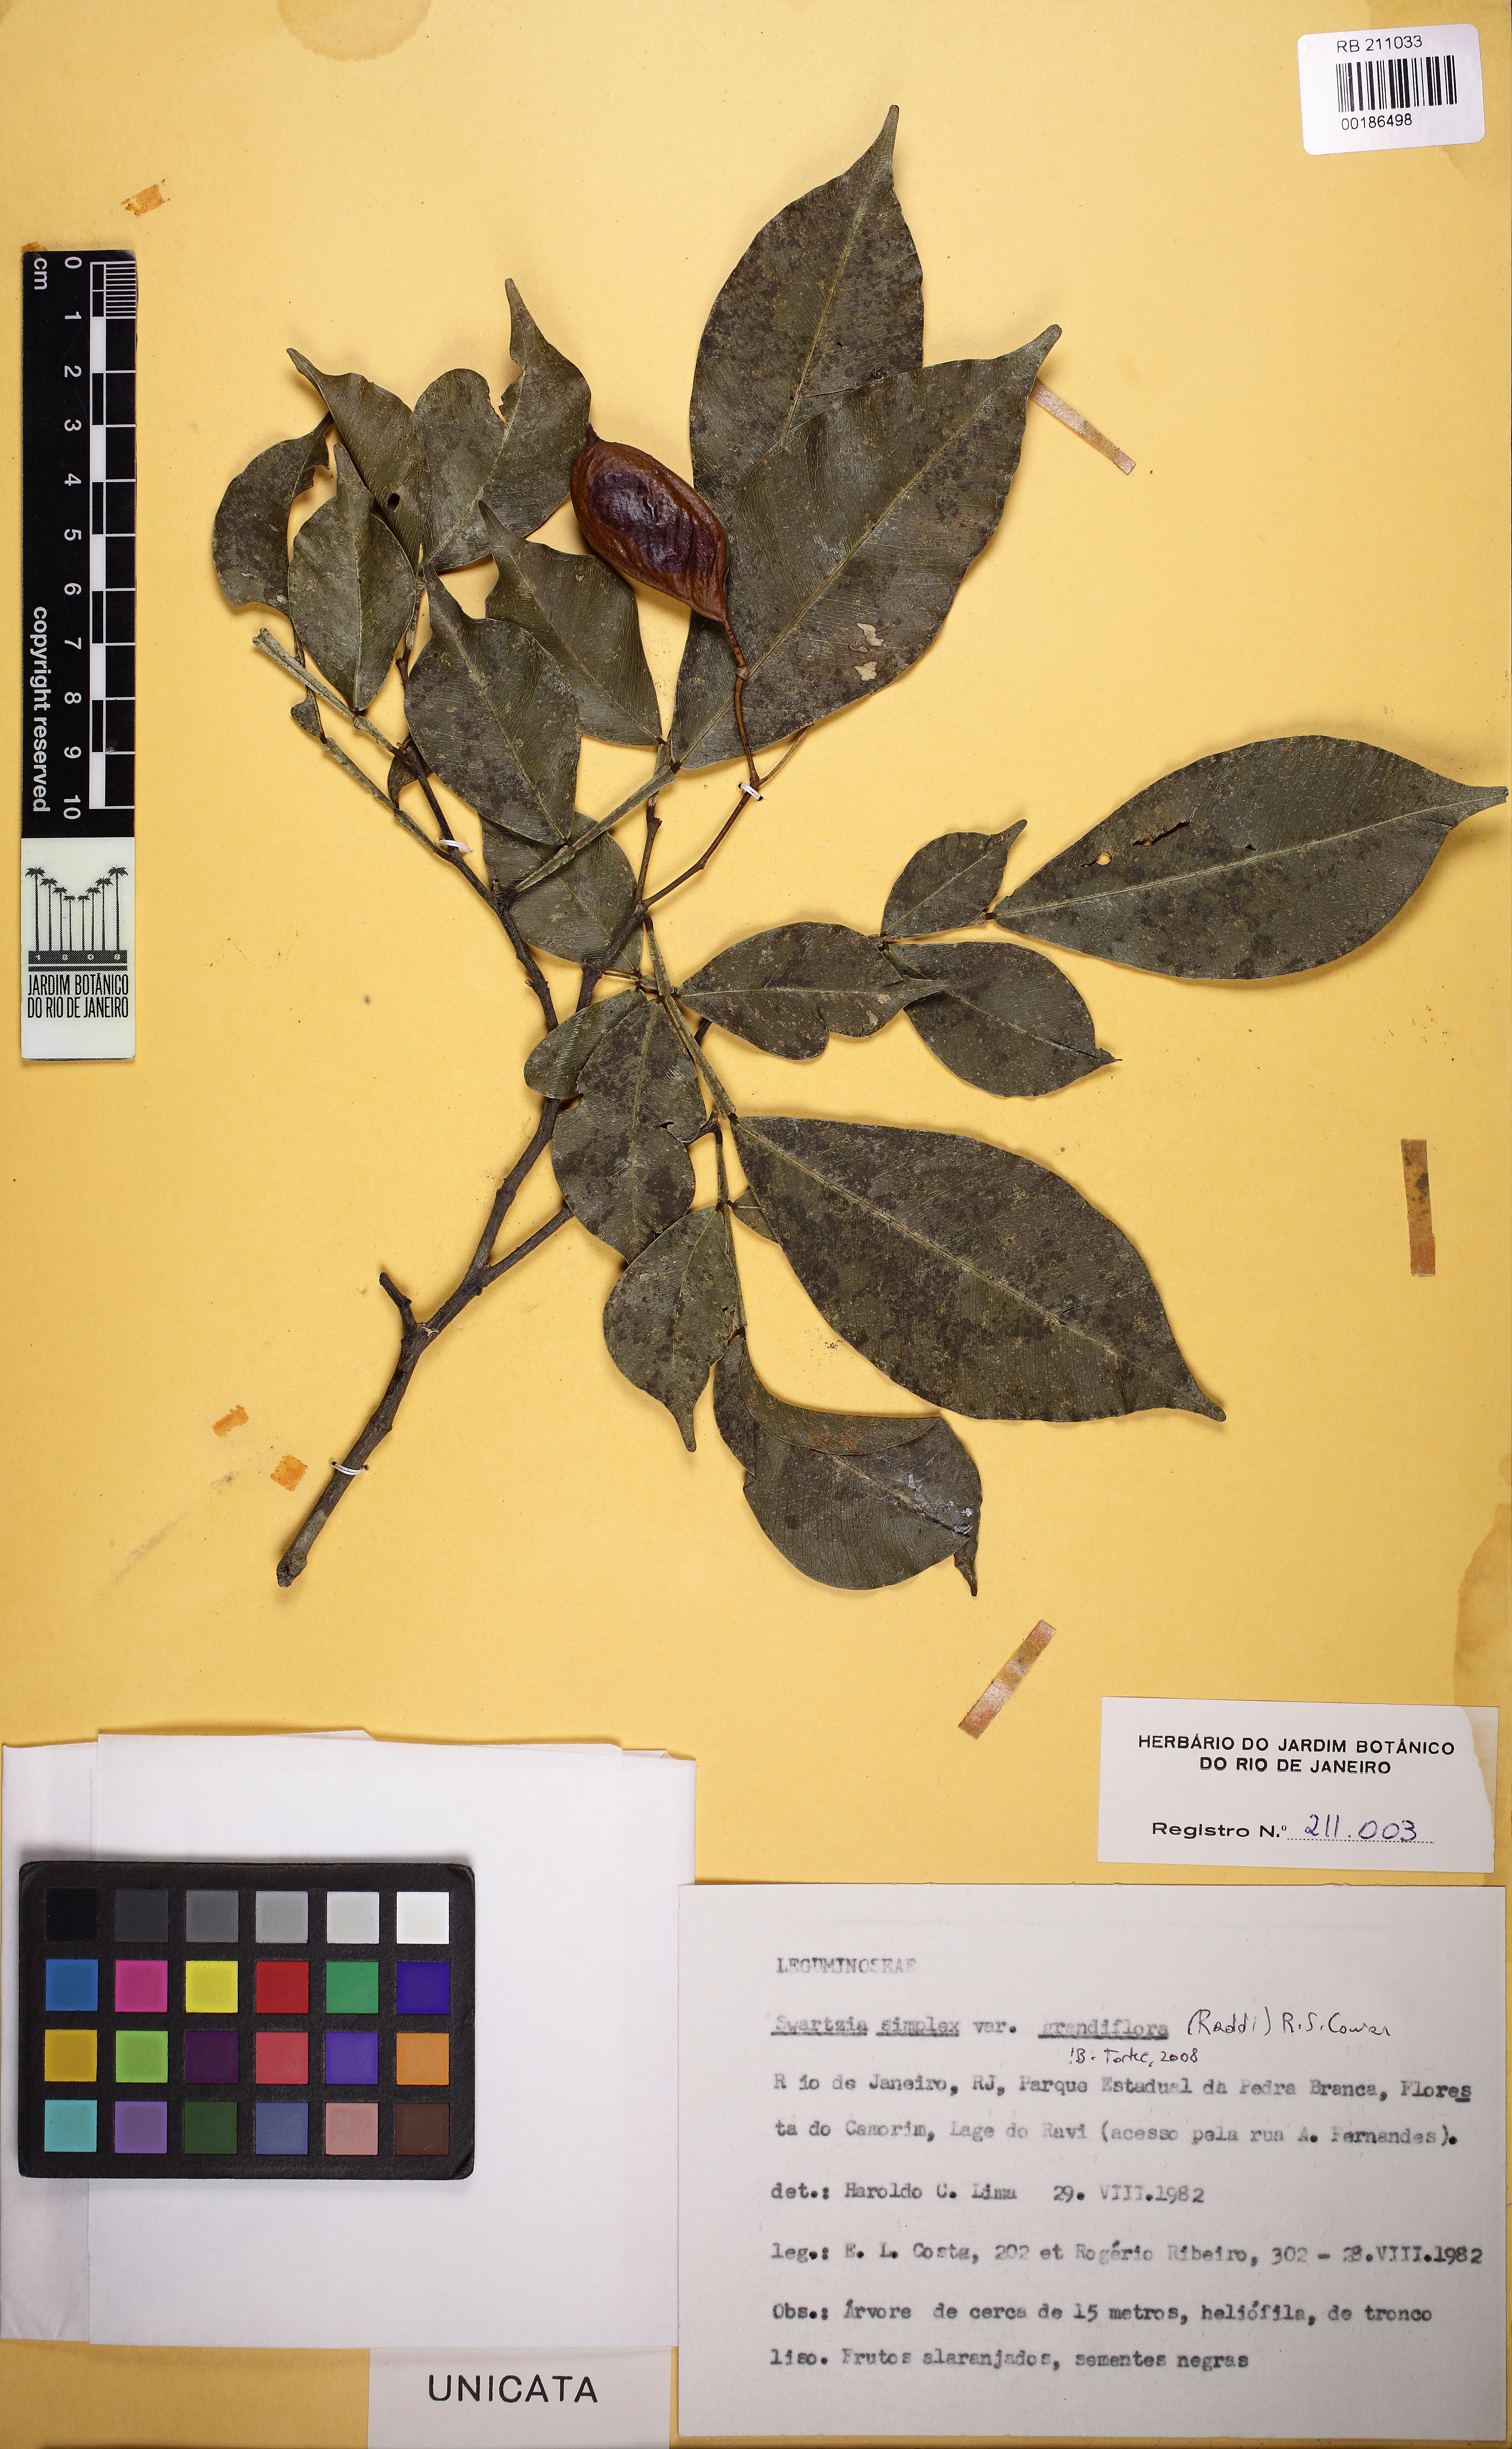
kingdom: Plantae
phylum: Tracheophyta
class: Magnoliopsida
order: Fabales
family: Fabaceae
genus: Swartzia
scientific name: Swartzia simplex
